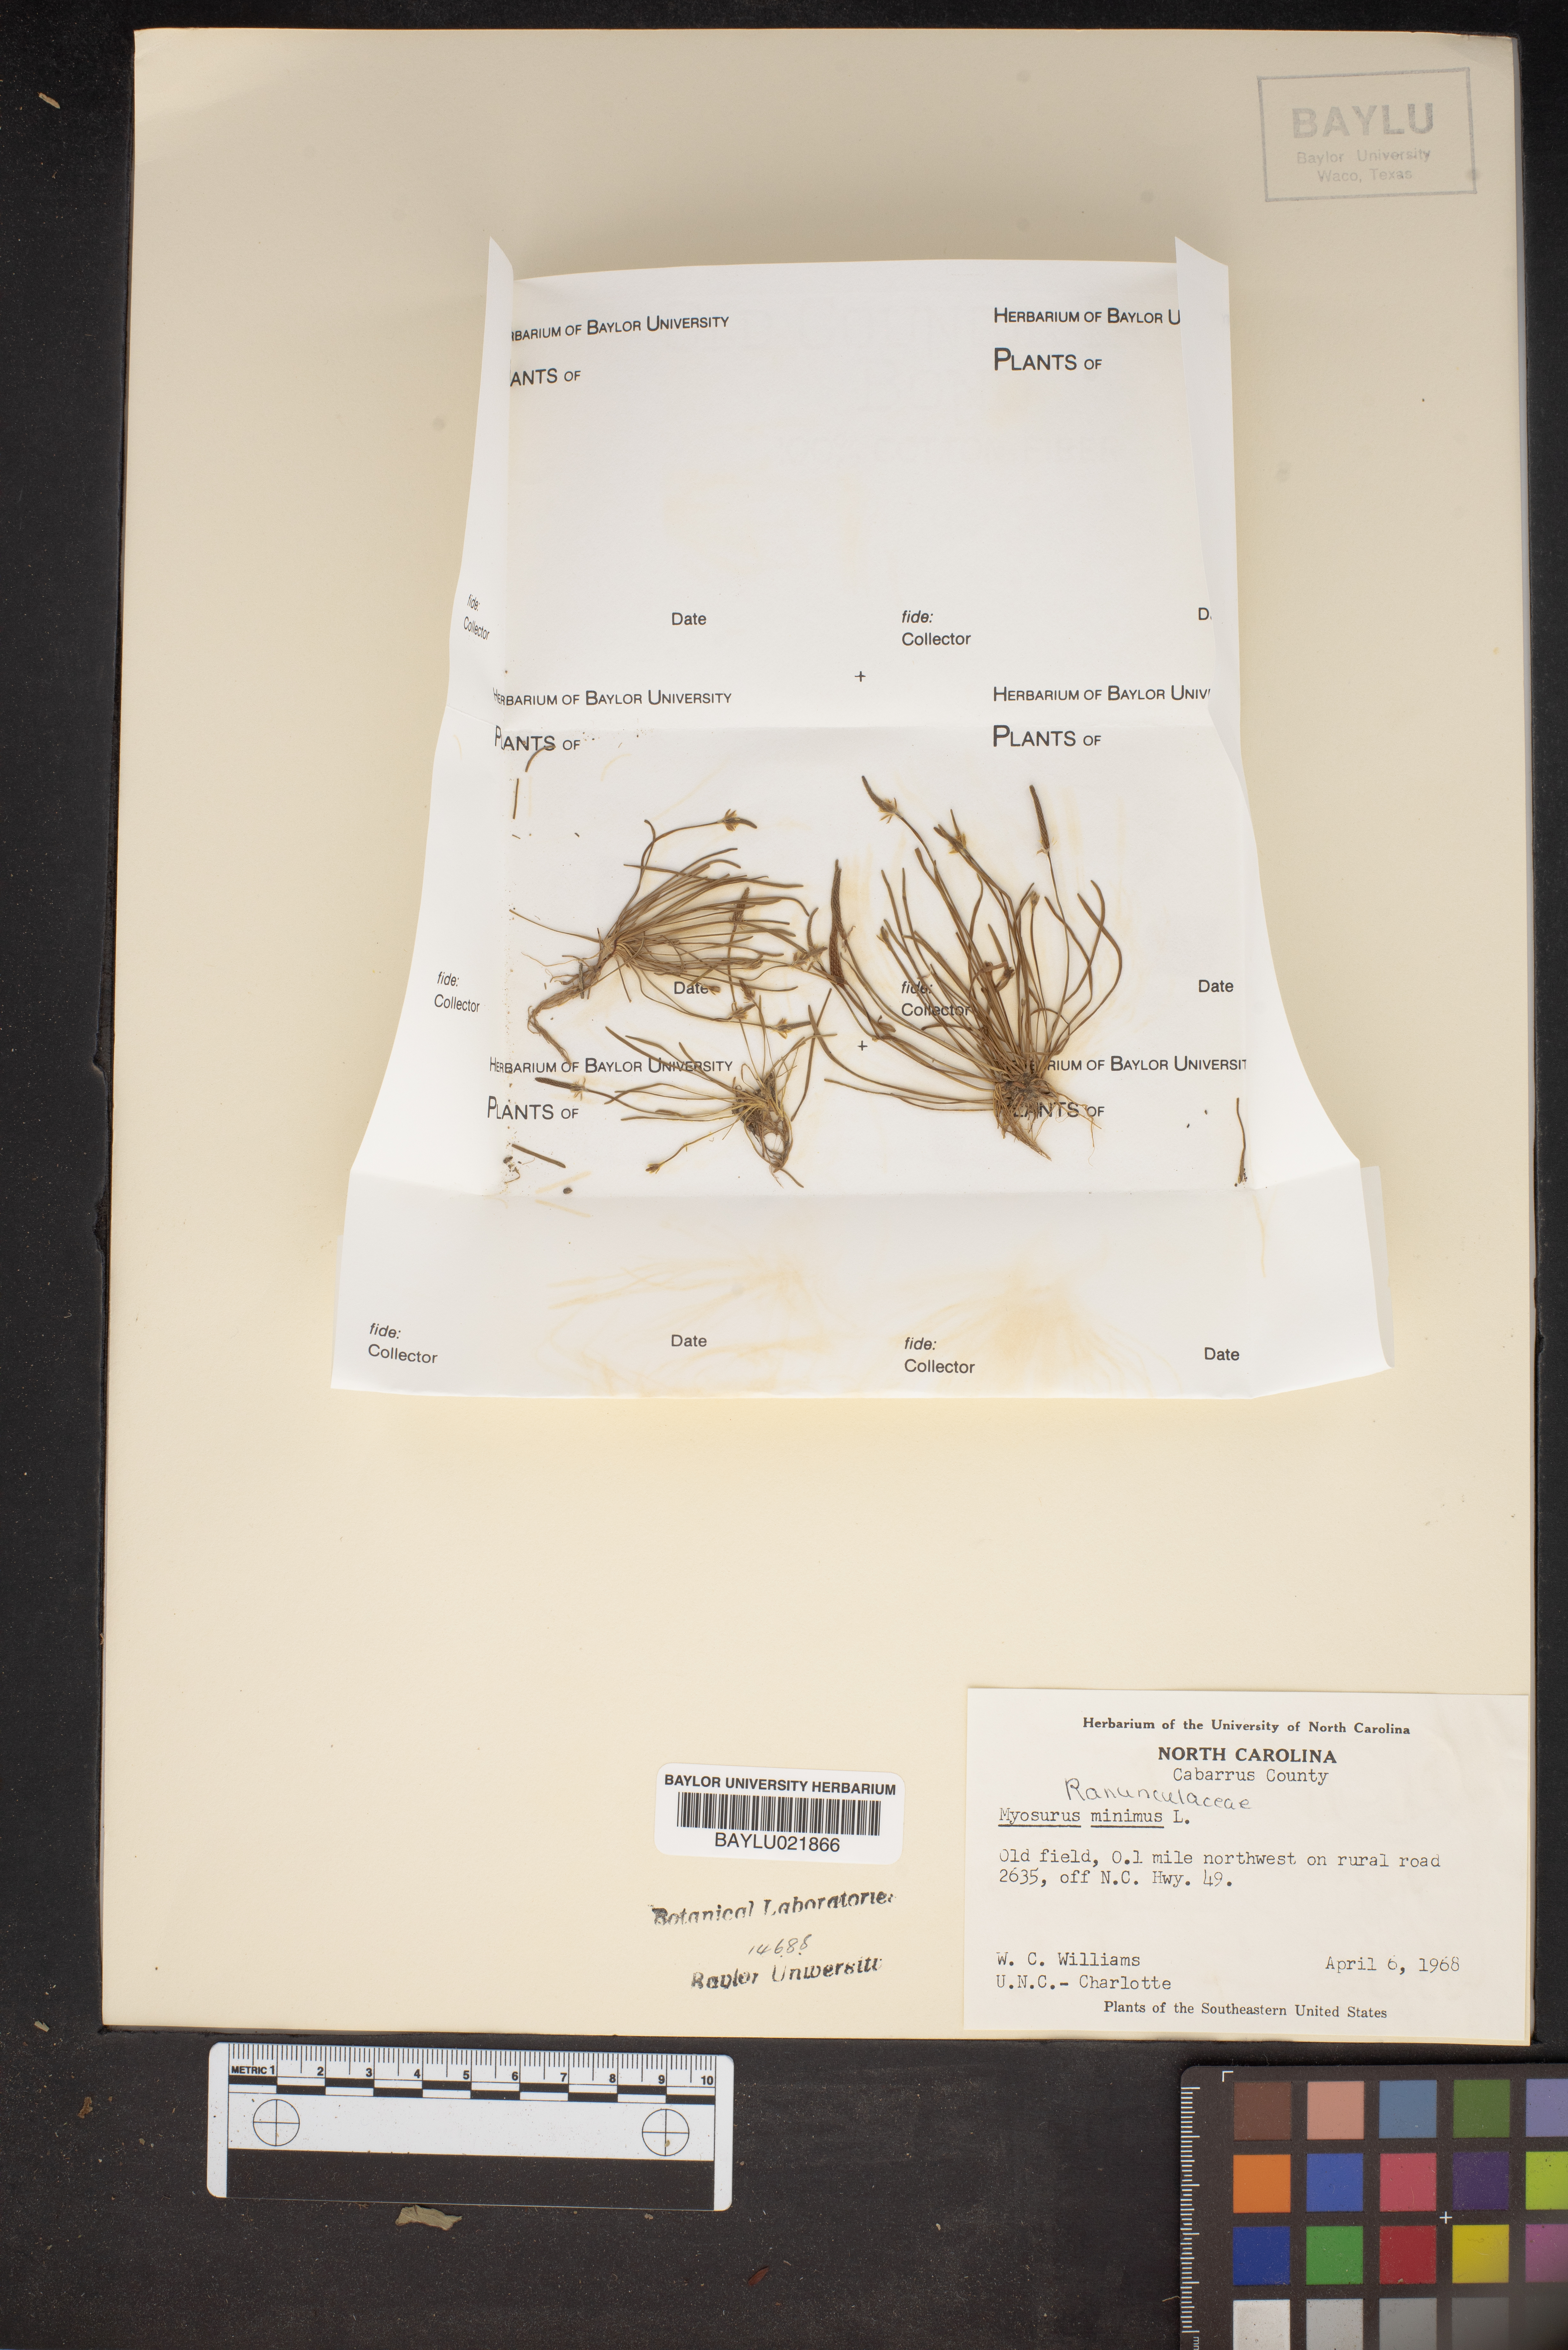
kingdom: Plantae
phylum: Tracheophyta
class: Magnoliopsida
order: Ranunculales
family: Ranunculaceae
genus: Myosurus
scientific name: Myosurus minimus
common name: Mousetail
